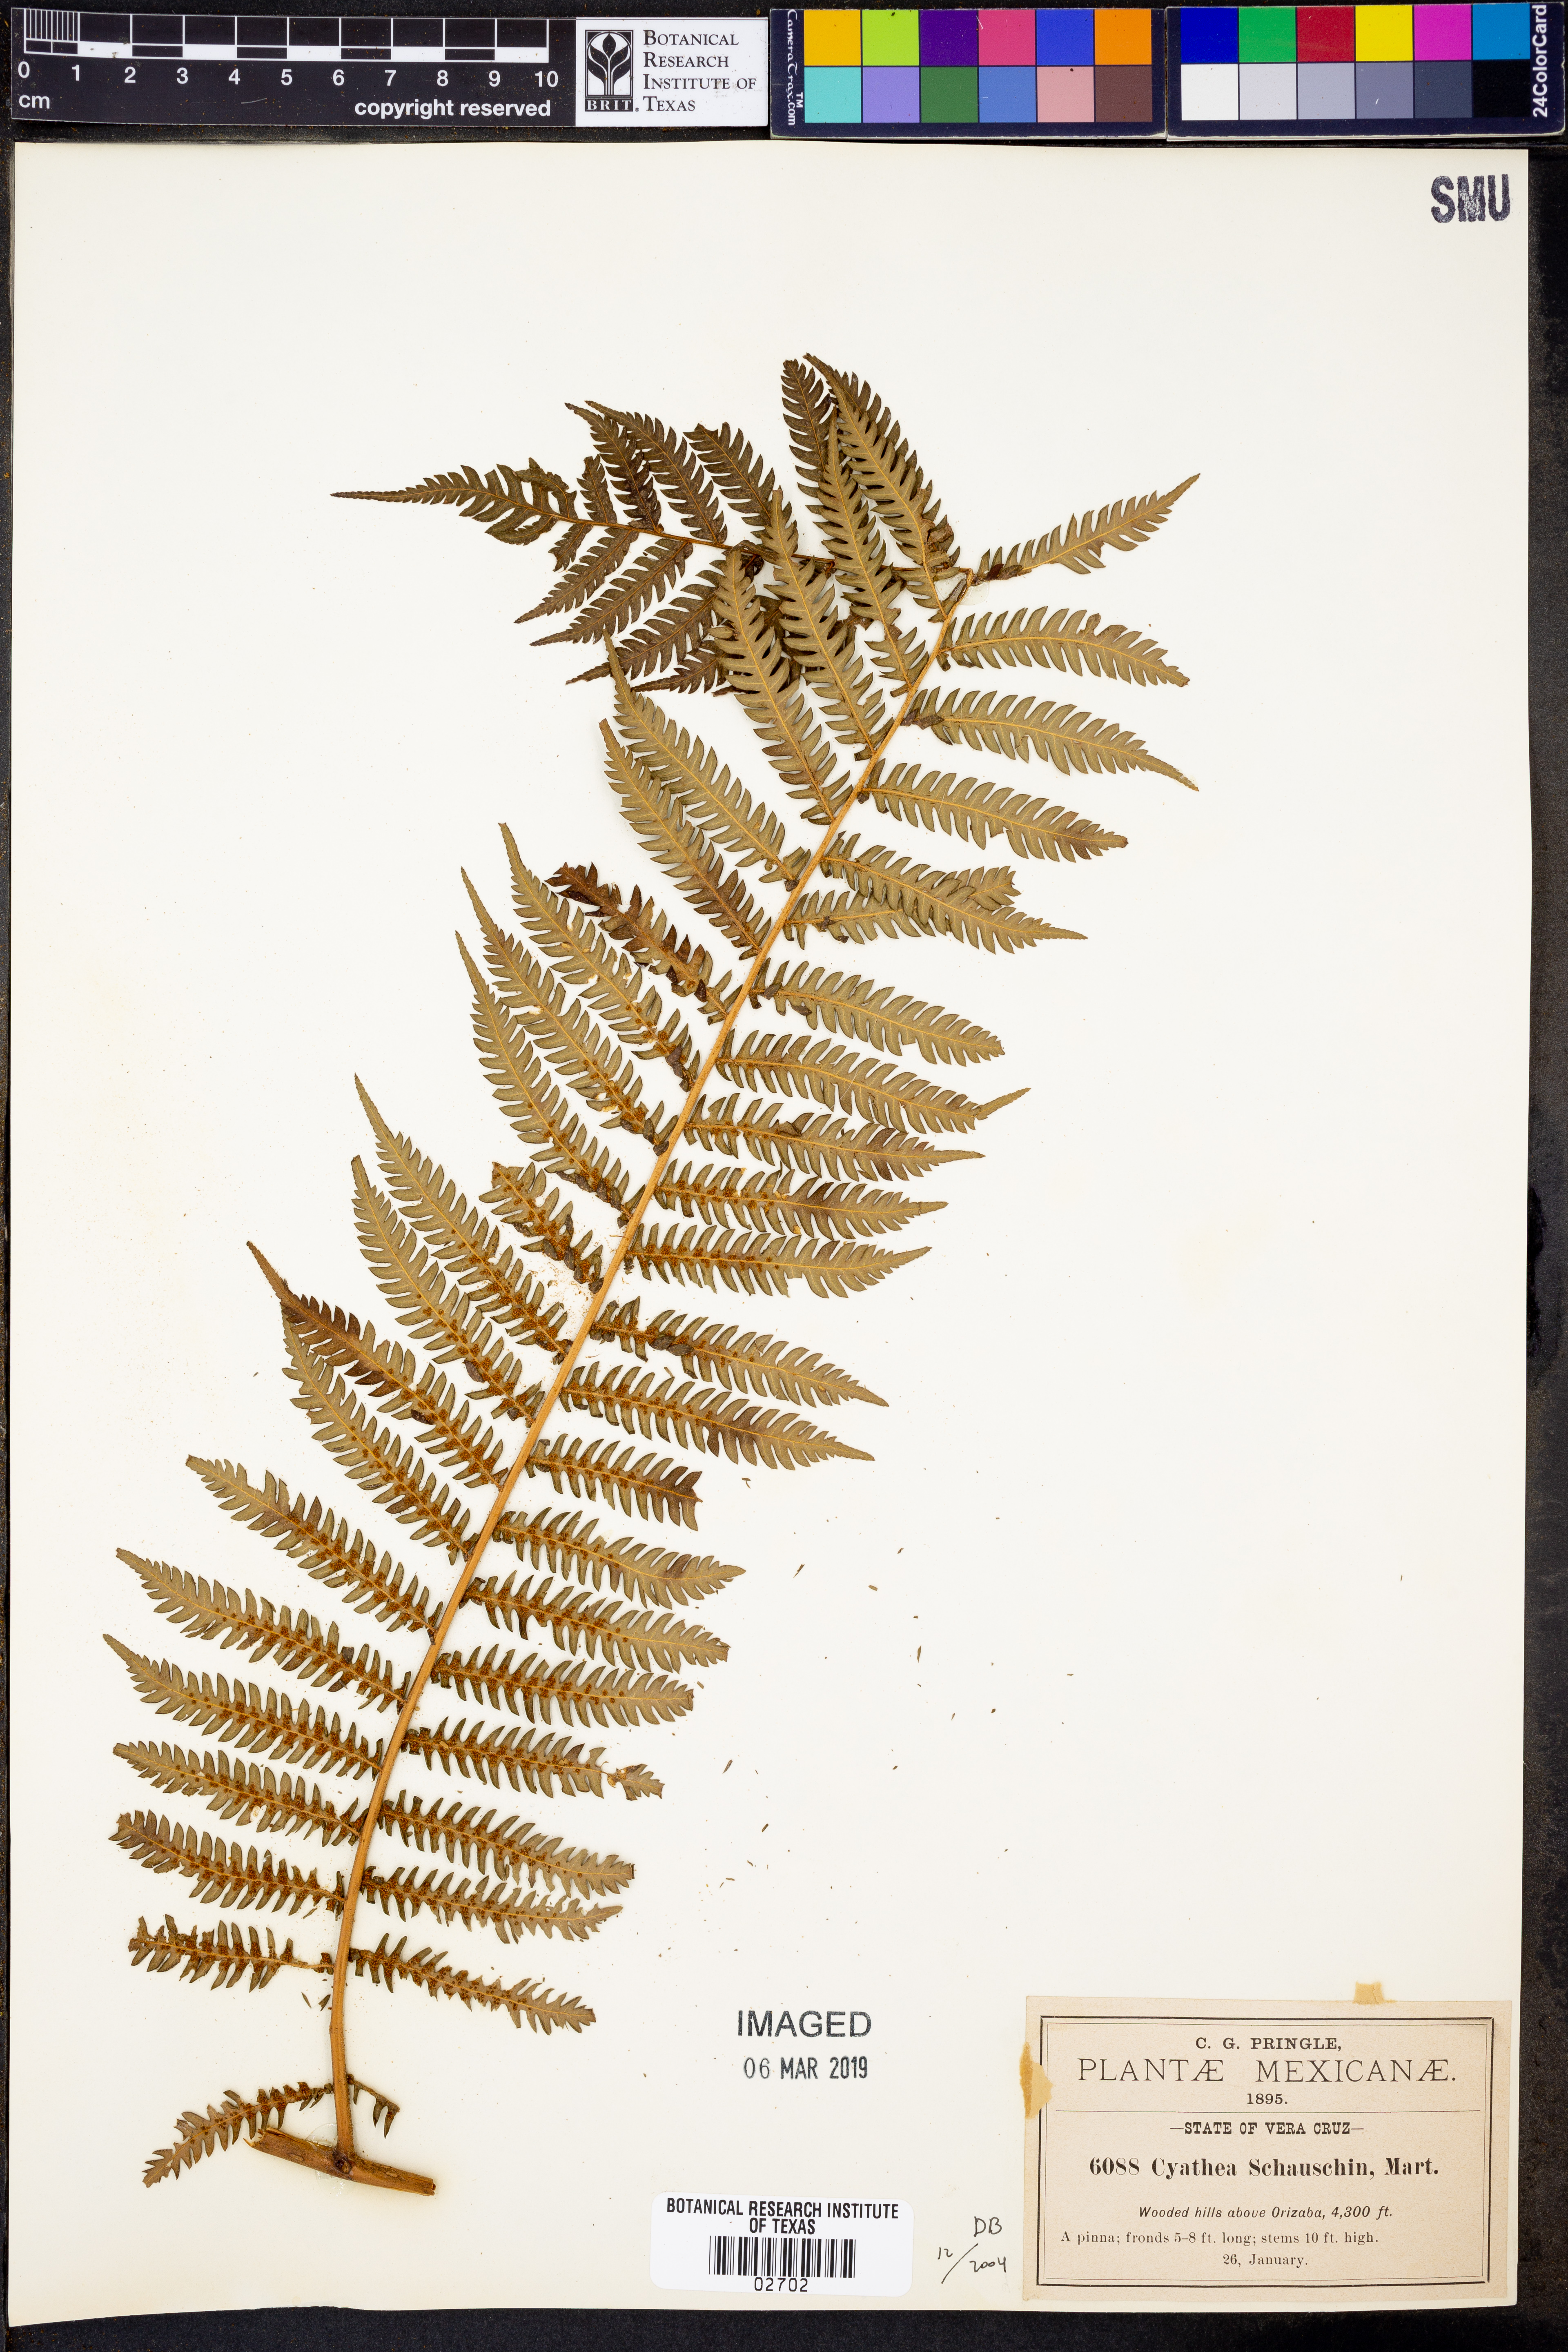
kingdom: Plantae
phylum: Tracheophyta
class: Polypodiopsida
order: Cyatheales
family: Cyatheaceae
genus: Cyathea
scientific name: Cyathea delgadii
